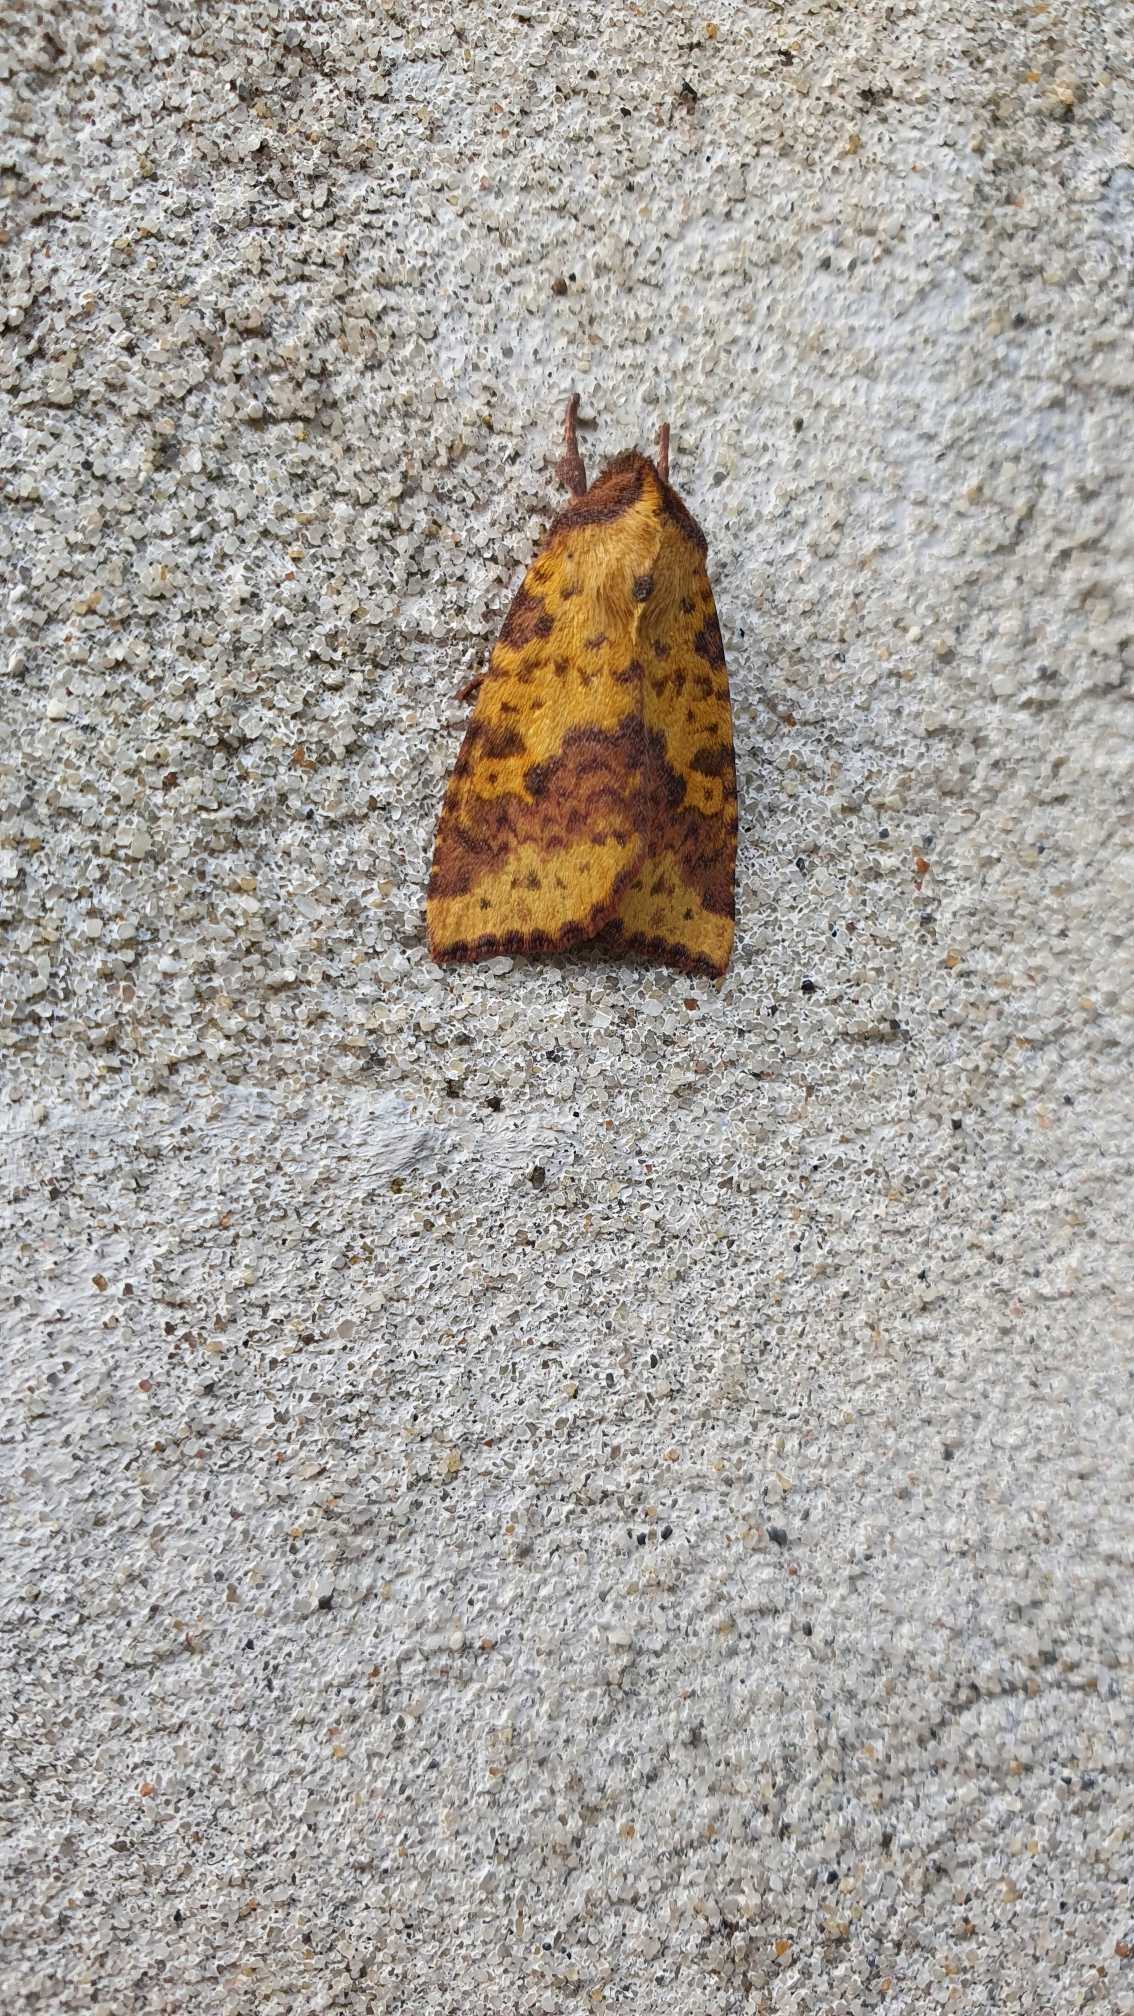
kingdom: Animalia
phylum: Arthropoda
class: Insecta
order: Lepidoptera
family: Noctuidae
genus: Xanthia
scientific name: Xanthia togata
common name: Toga-septemberugle
